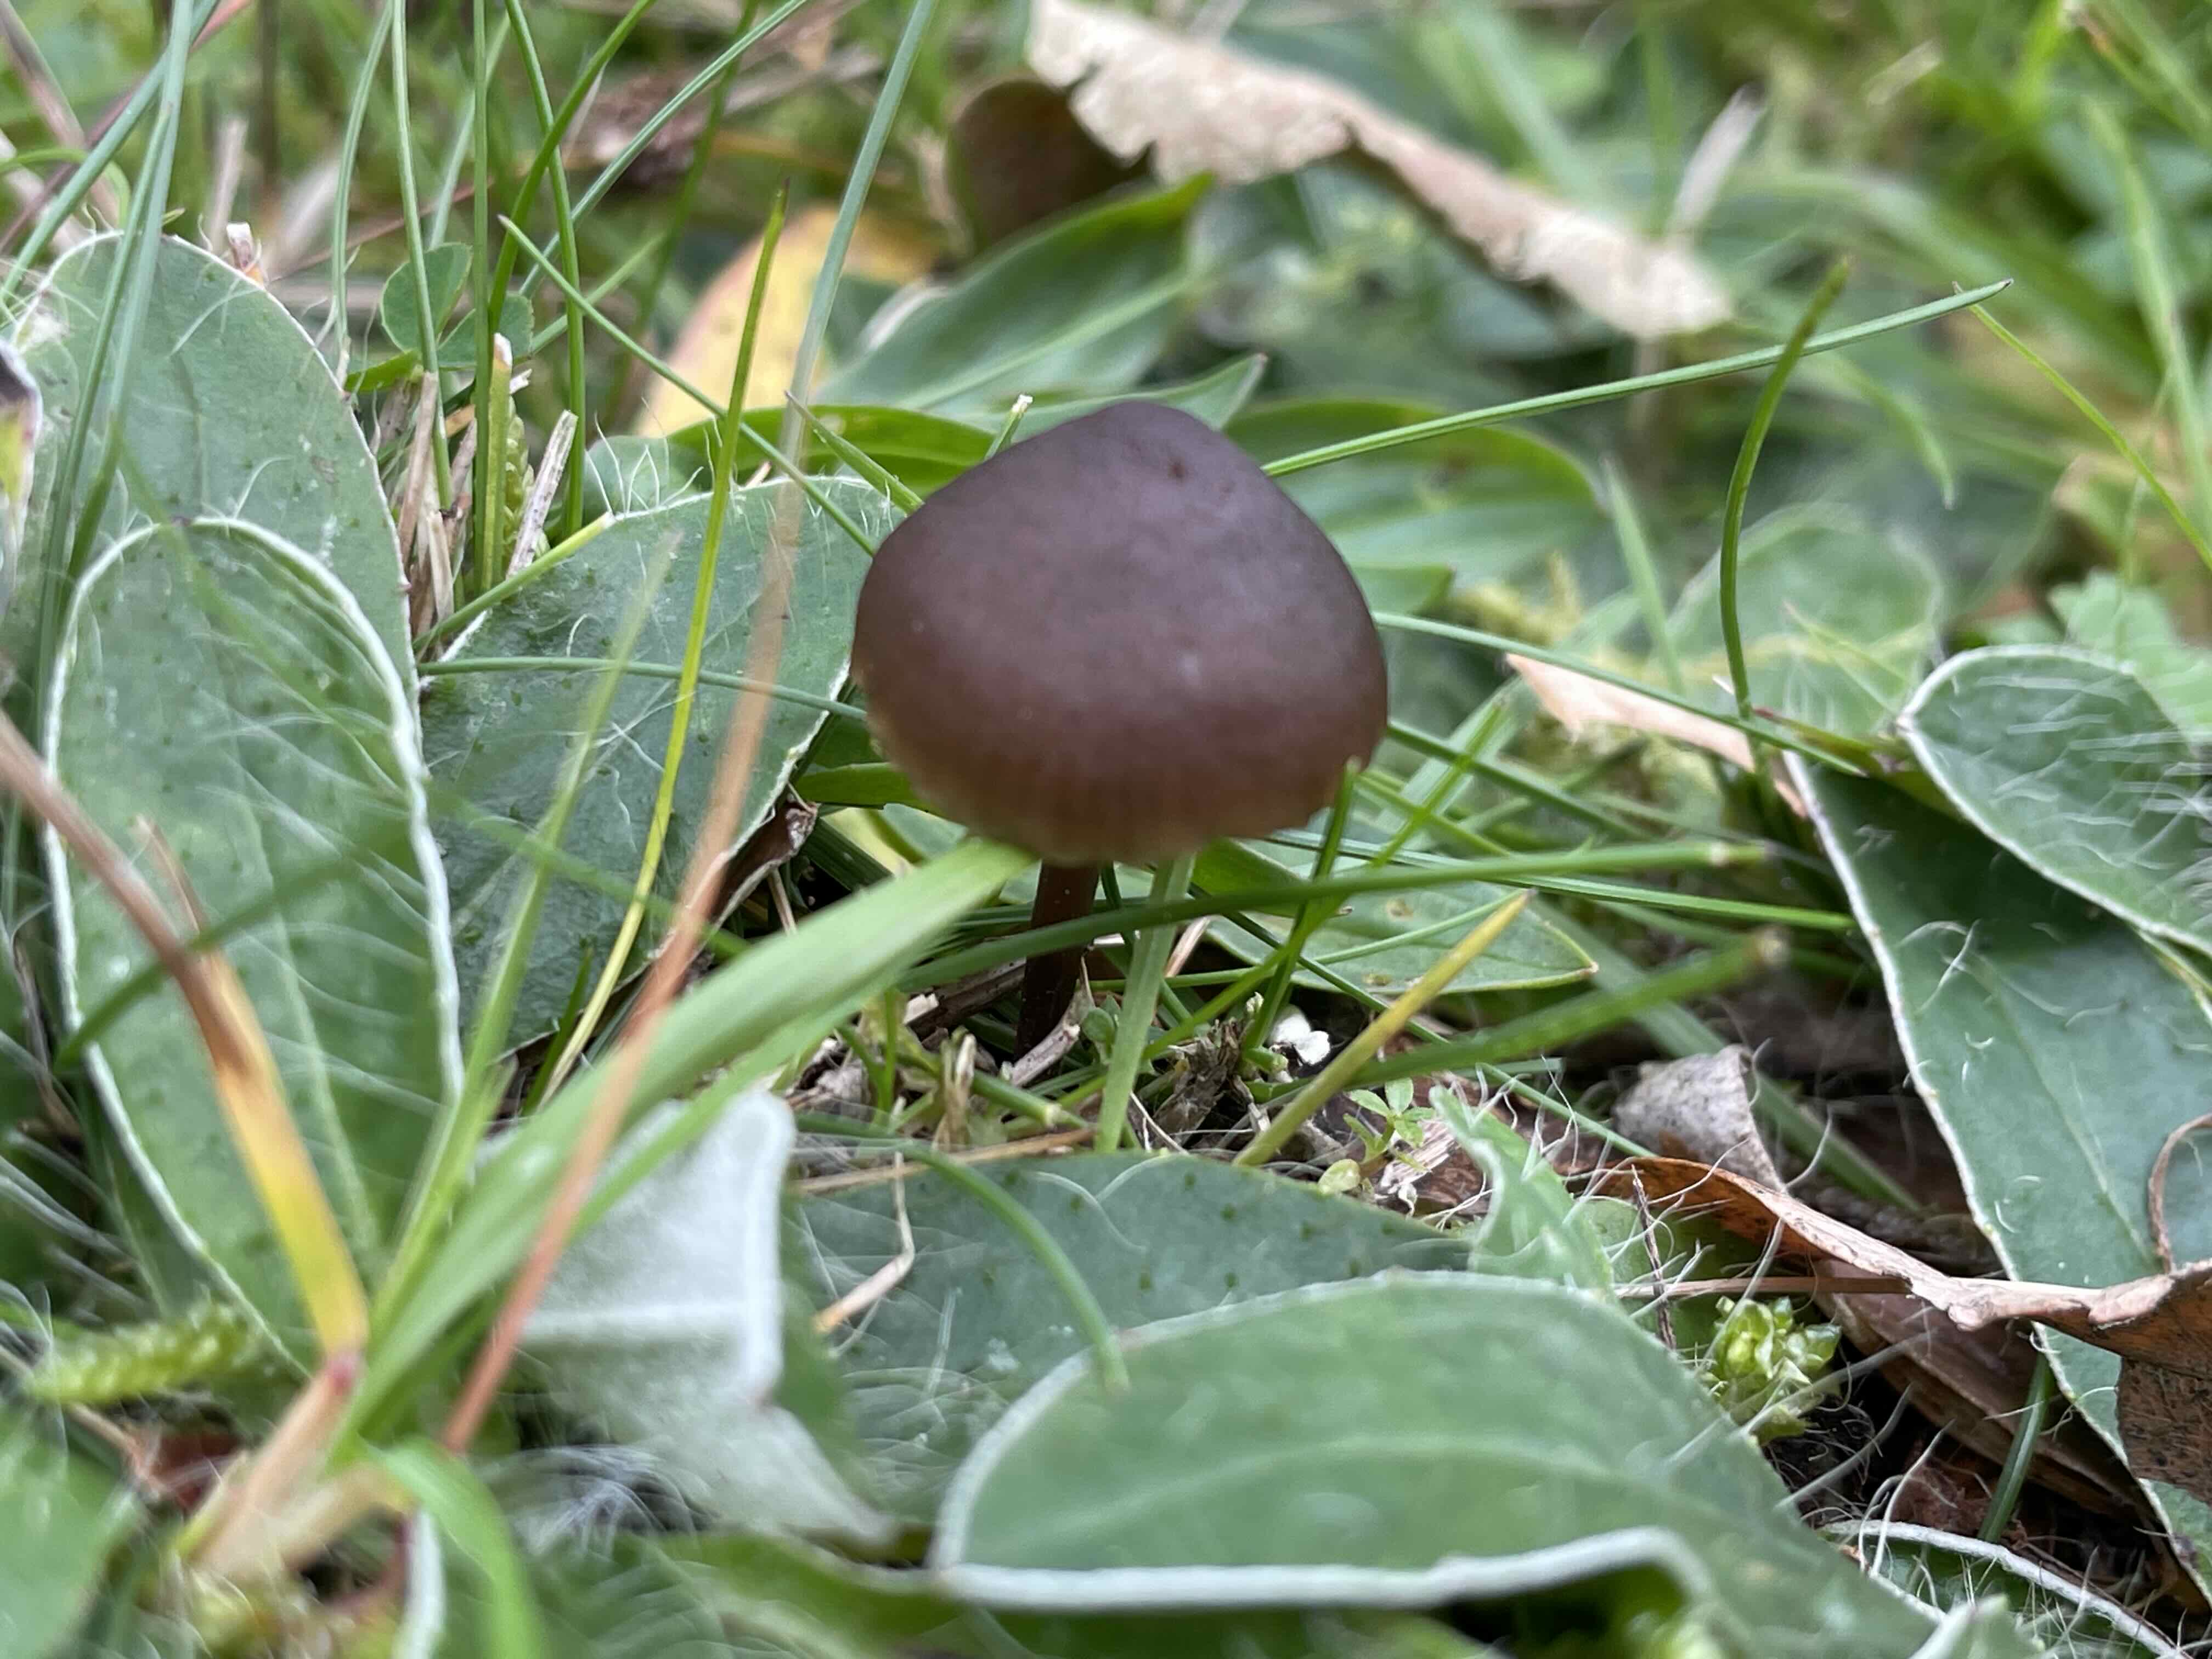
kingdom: Fungi
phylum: Basidiomycota
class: Agaricomycetes
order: Agaricales
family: Entolomataceae
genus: Entoloma
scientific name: Entoloma clandestinum
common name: tykbladet rødblad
